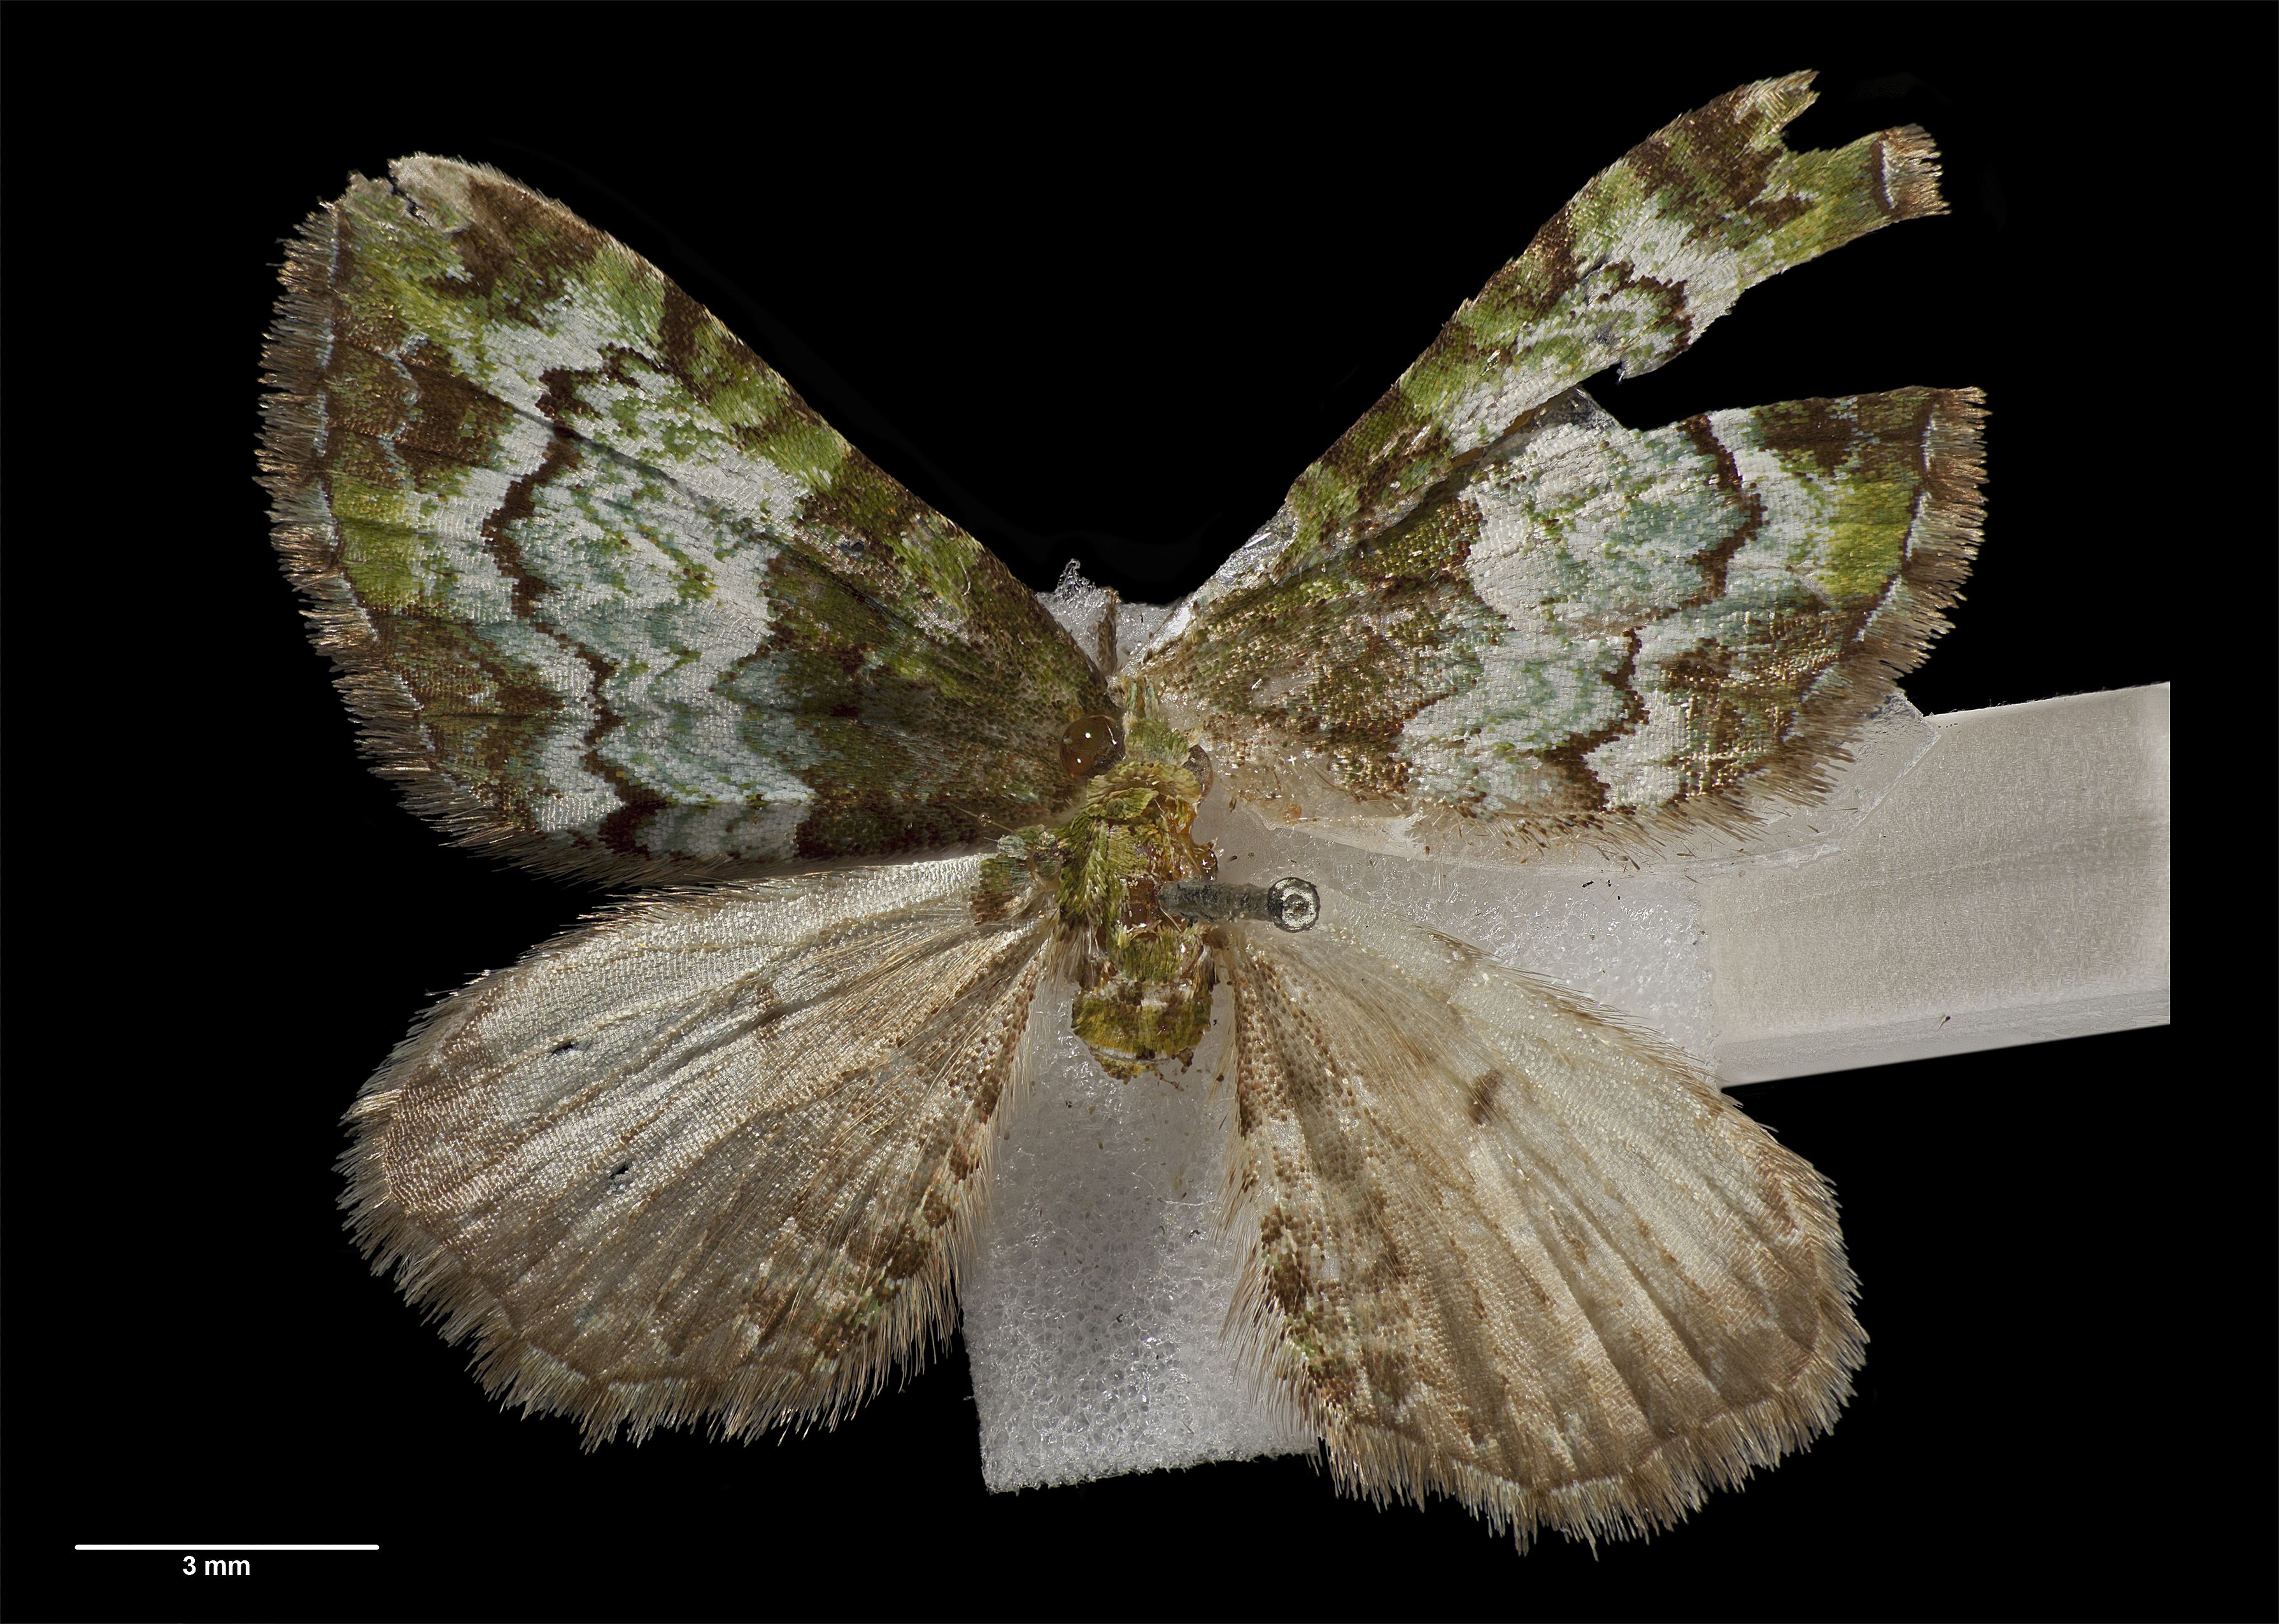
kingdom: Animalia
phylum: Arthropoda
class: Insecta
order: Lepidoptera
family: Geometridae
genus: Pasiphila
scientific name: Pasiphila malachita
